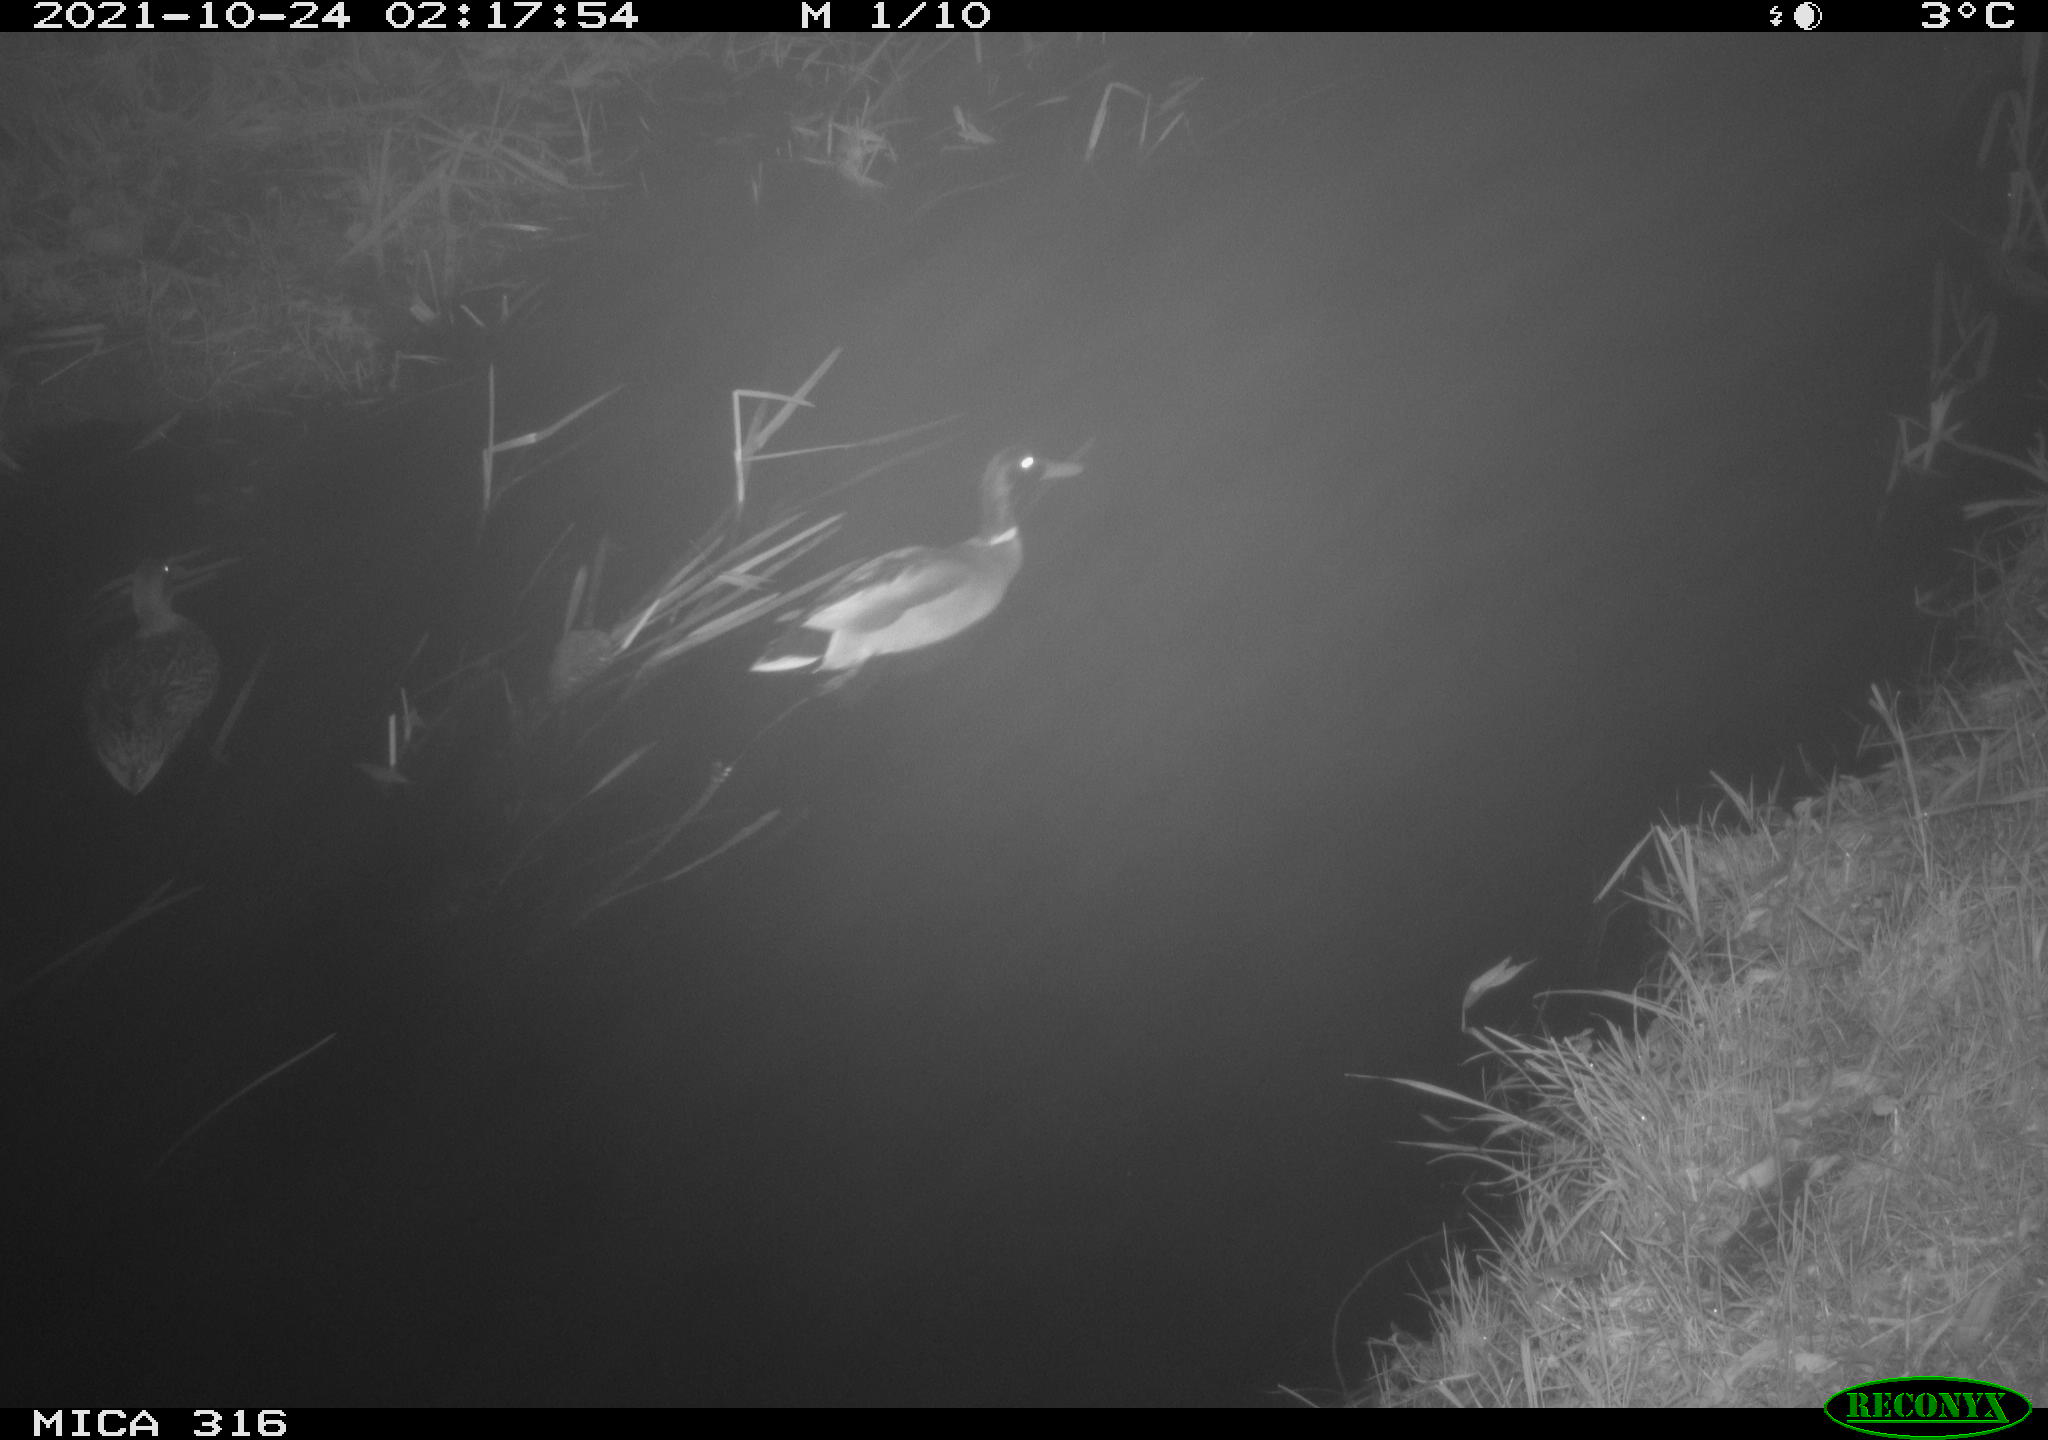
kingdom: Animalia
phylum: Chordata
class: Aves
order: Anseriformes
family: Anatidae
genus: Anas
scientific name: Anas platyrhynchos
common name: Mallard
